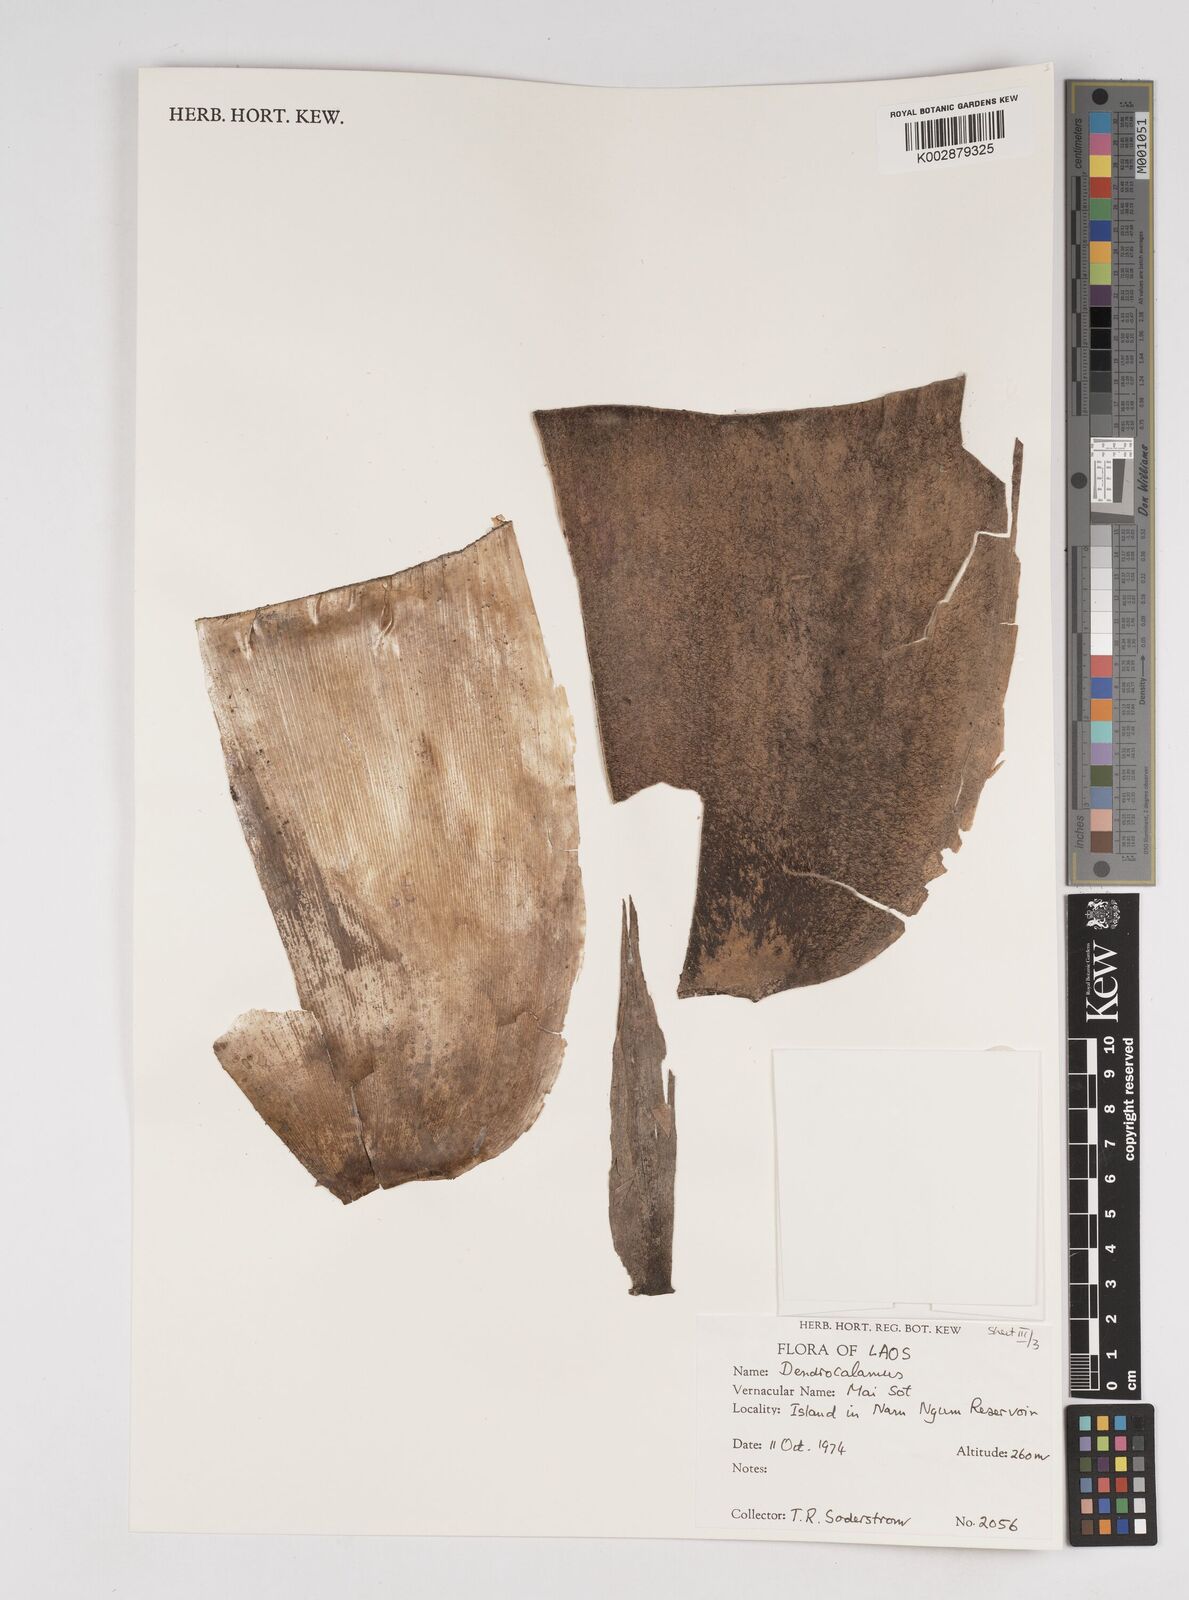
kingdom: Plantae
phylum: Tracheophyta
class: Liliopsida
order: Poales
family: Poaceae
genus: Dendrocalamus
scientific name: Dendrocalamus
